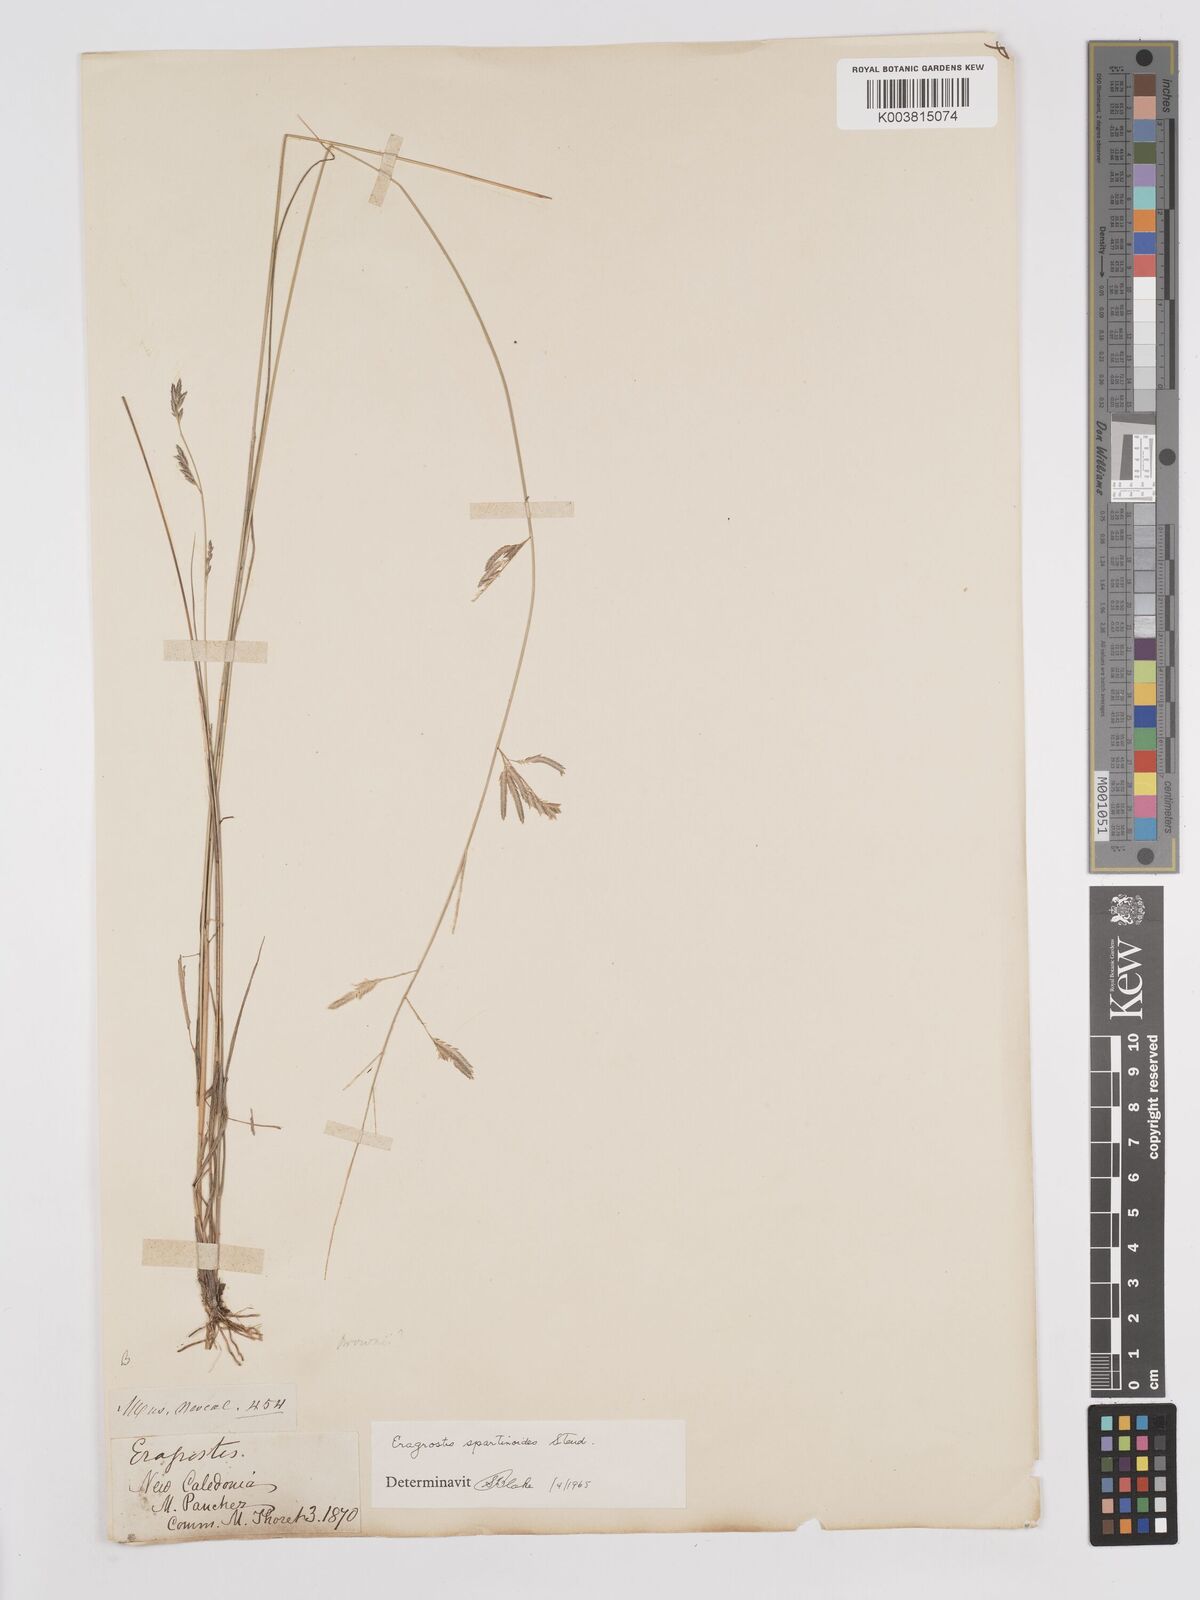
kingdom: Plantae
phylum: Tracheophyta
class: Liliopsida
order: Poales
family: Poaceae
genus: Eragrostis
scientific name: Eragrostis brownii
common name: Lovegrass
